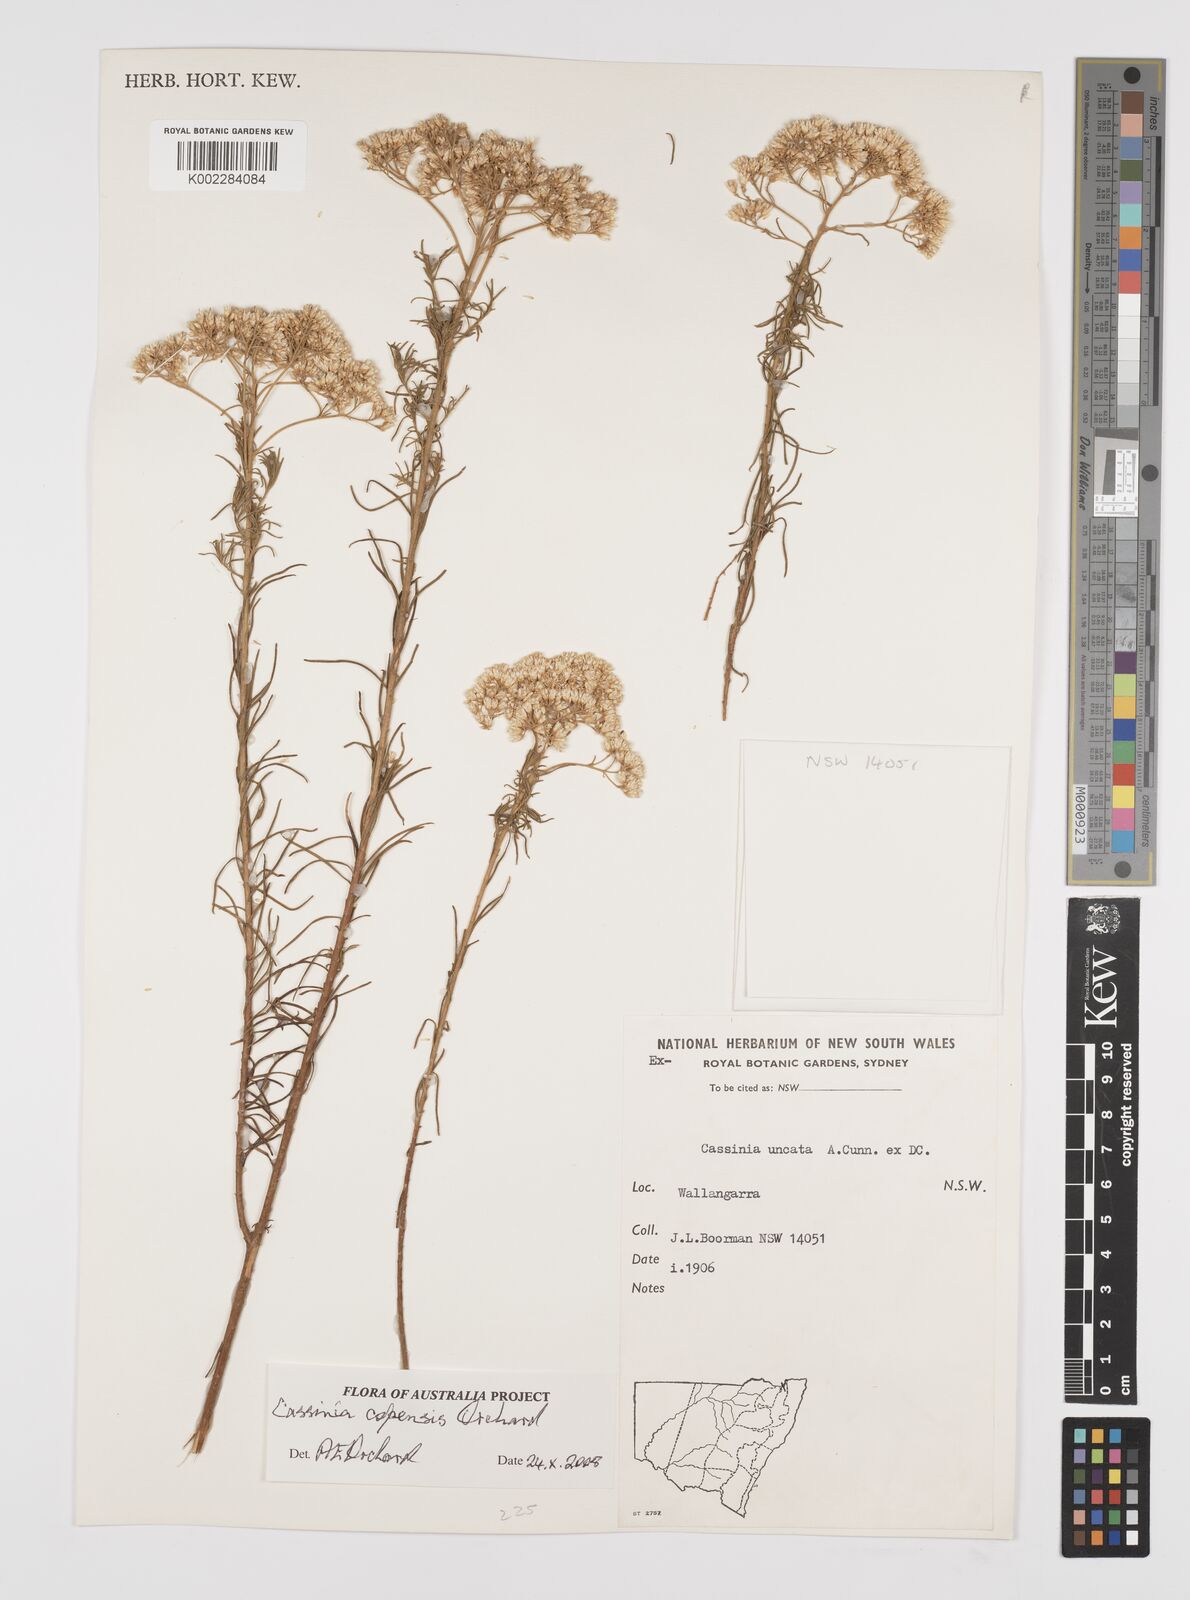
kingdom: Plantae
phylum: Tracheophyta
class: Magnoliopsida
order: Asterales
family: Asteraceae
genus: Cassinia
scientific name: Cassinia copensis
